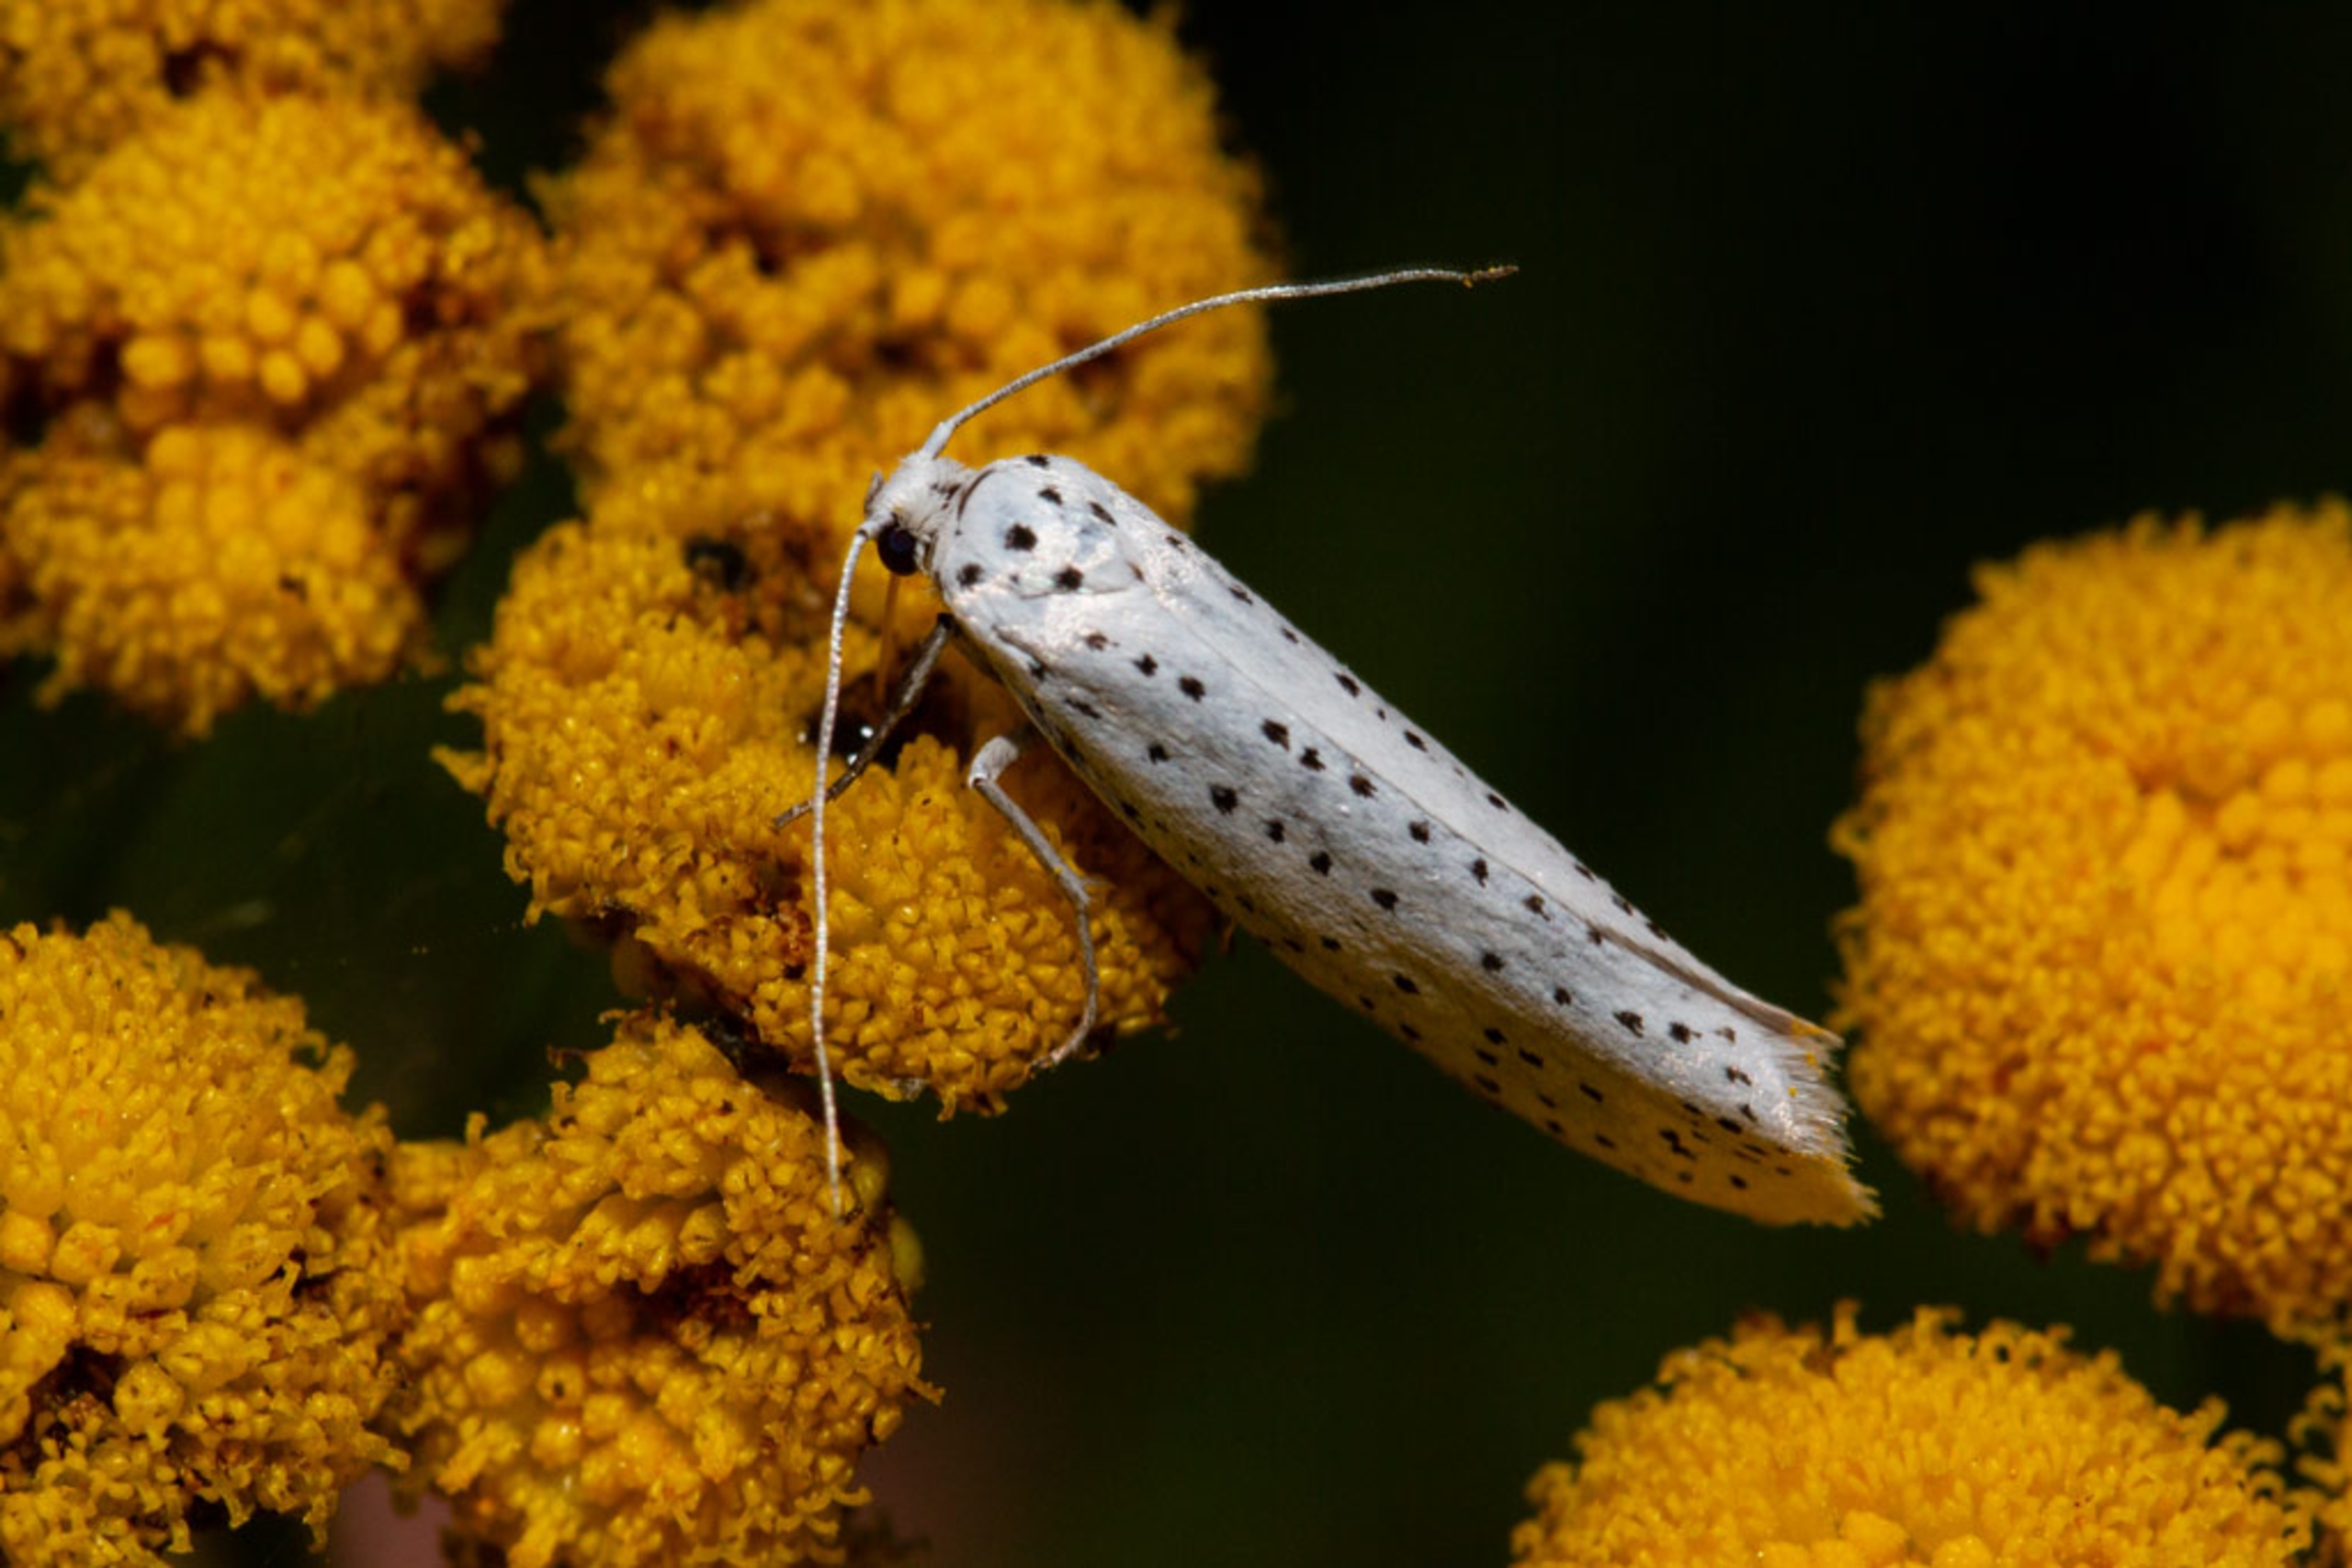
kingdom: Animalia
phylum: Arthropoda
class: Insecta
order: Lepidoptera
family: Yponomeutidae
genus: Yponomeuta
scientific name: Yponomeuta evonymella
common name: Hægspindemøl
